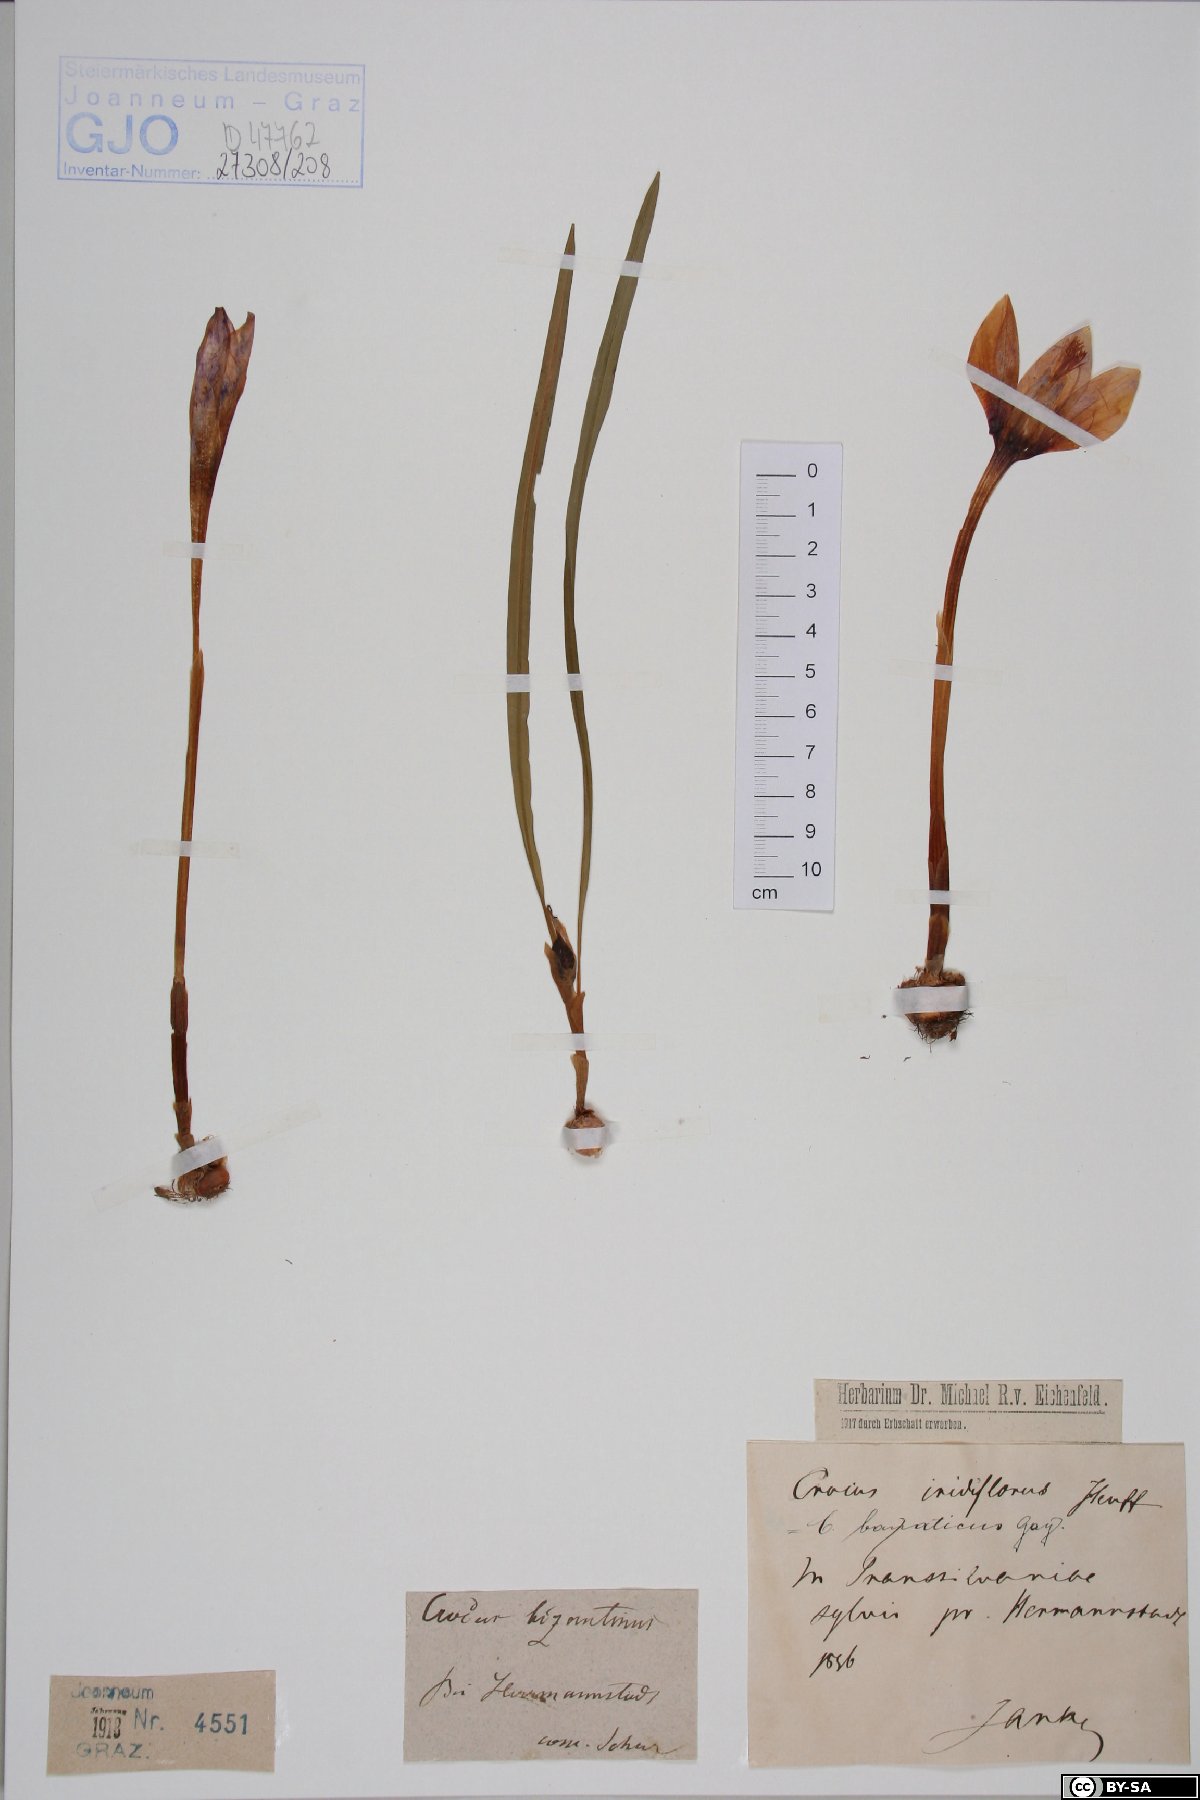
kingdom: Plantae
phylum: Tracheophyta
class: Liliopsida
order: Asparagales
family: Iridaceae
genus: Crocus
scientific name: Crocus banaticus
